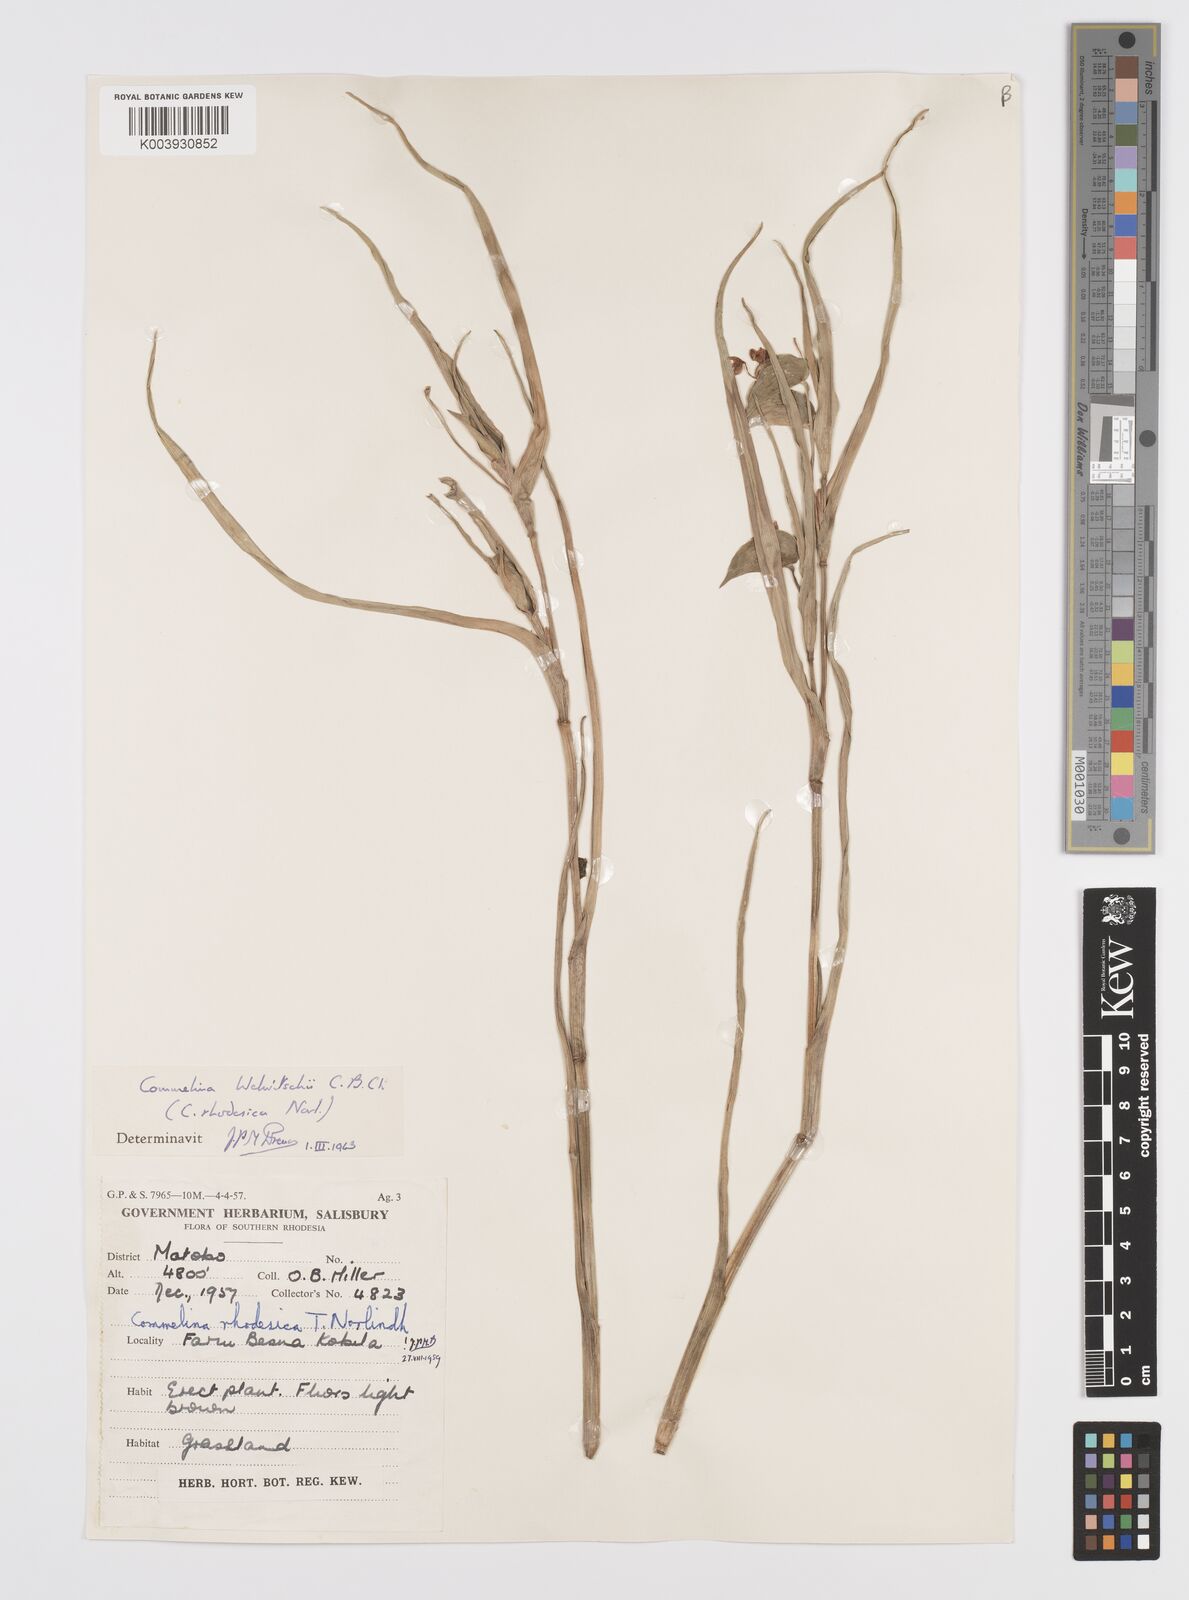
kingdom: Plantae
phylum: Tracheophyta
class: Liliopsida
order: Commelinales
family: Commelinaceae
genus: Commelina
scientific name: Commelina welwitschii
